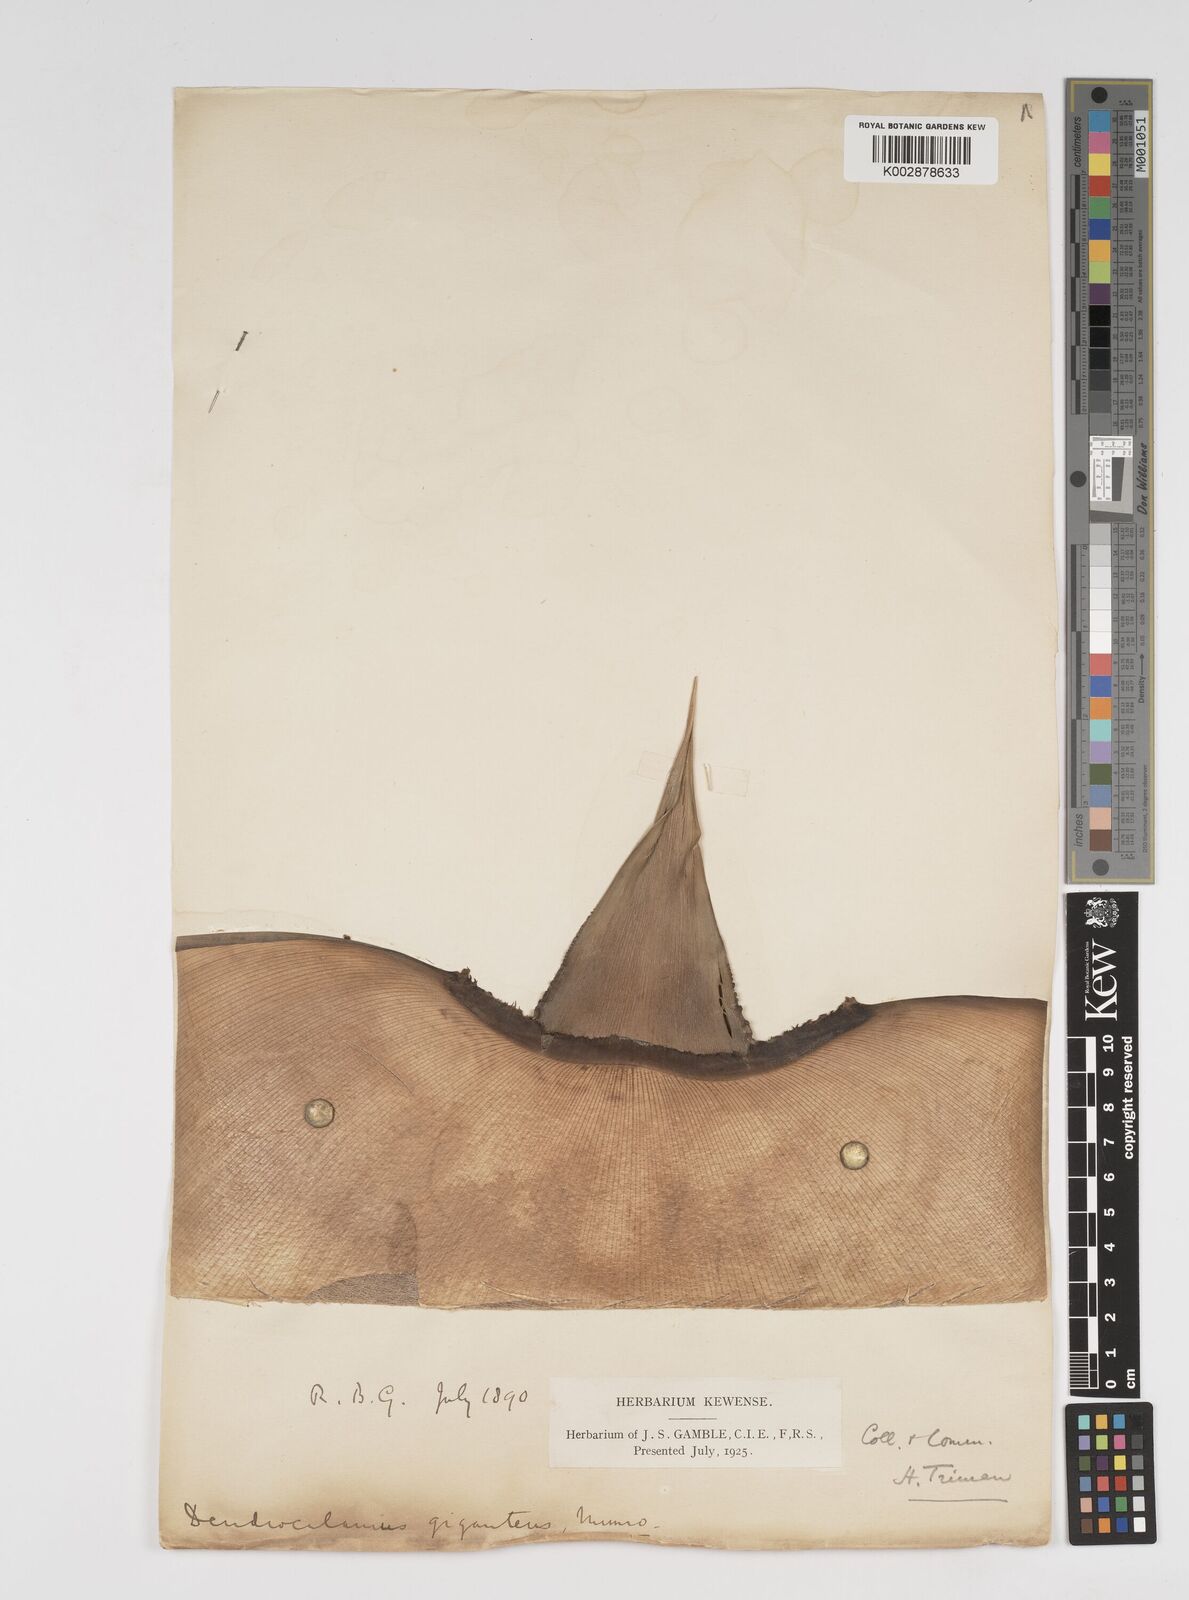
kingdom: Plantae
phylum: Tracheophyta
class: Liliopsida
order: Poales
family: Poaceae
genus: Dendrocalamus
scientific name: Dendrocalamus giganteus
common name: Giant bamboo
